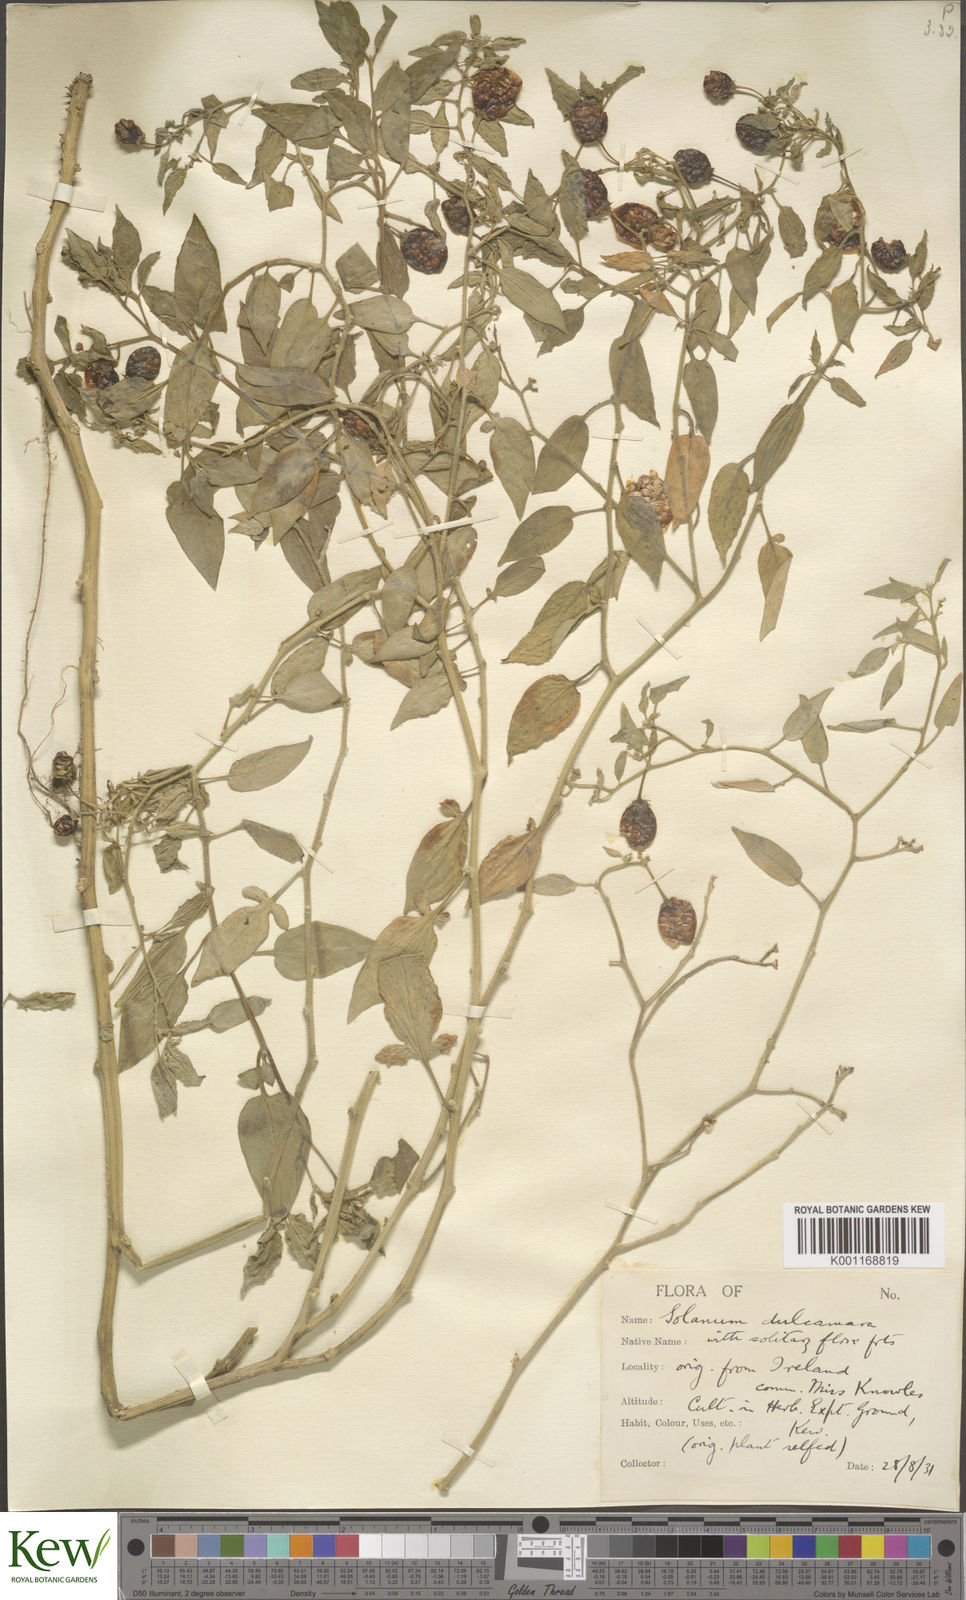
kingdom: Plantae
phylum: Tracheophyta
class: Magnoliopsida
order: Solanales
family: Solanaceae
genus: Solanum
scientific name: Solanum dulcamara
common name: Climbing nightshade
